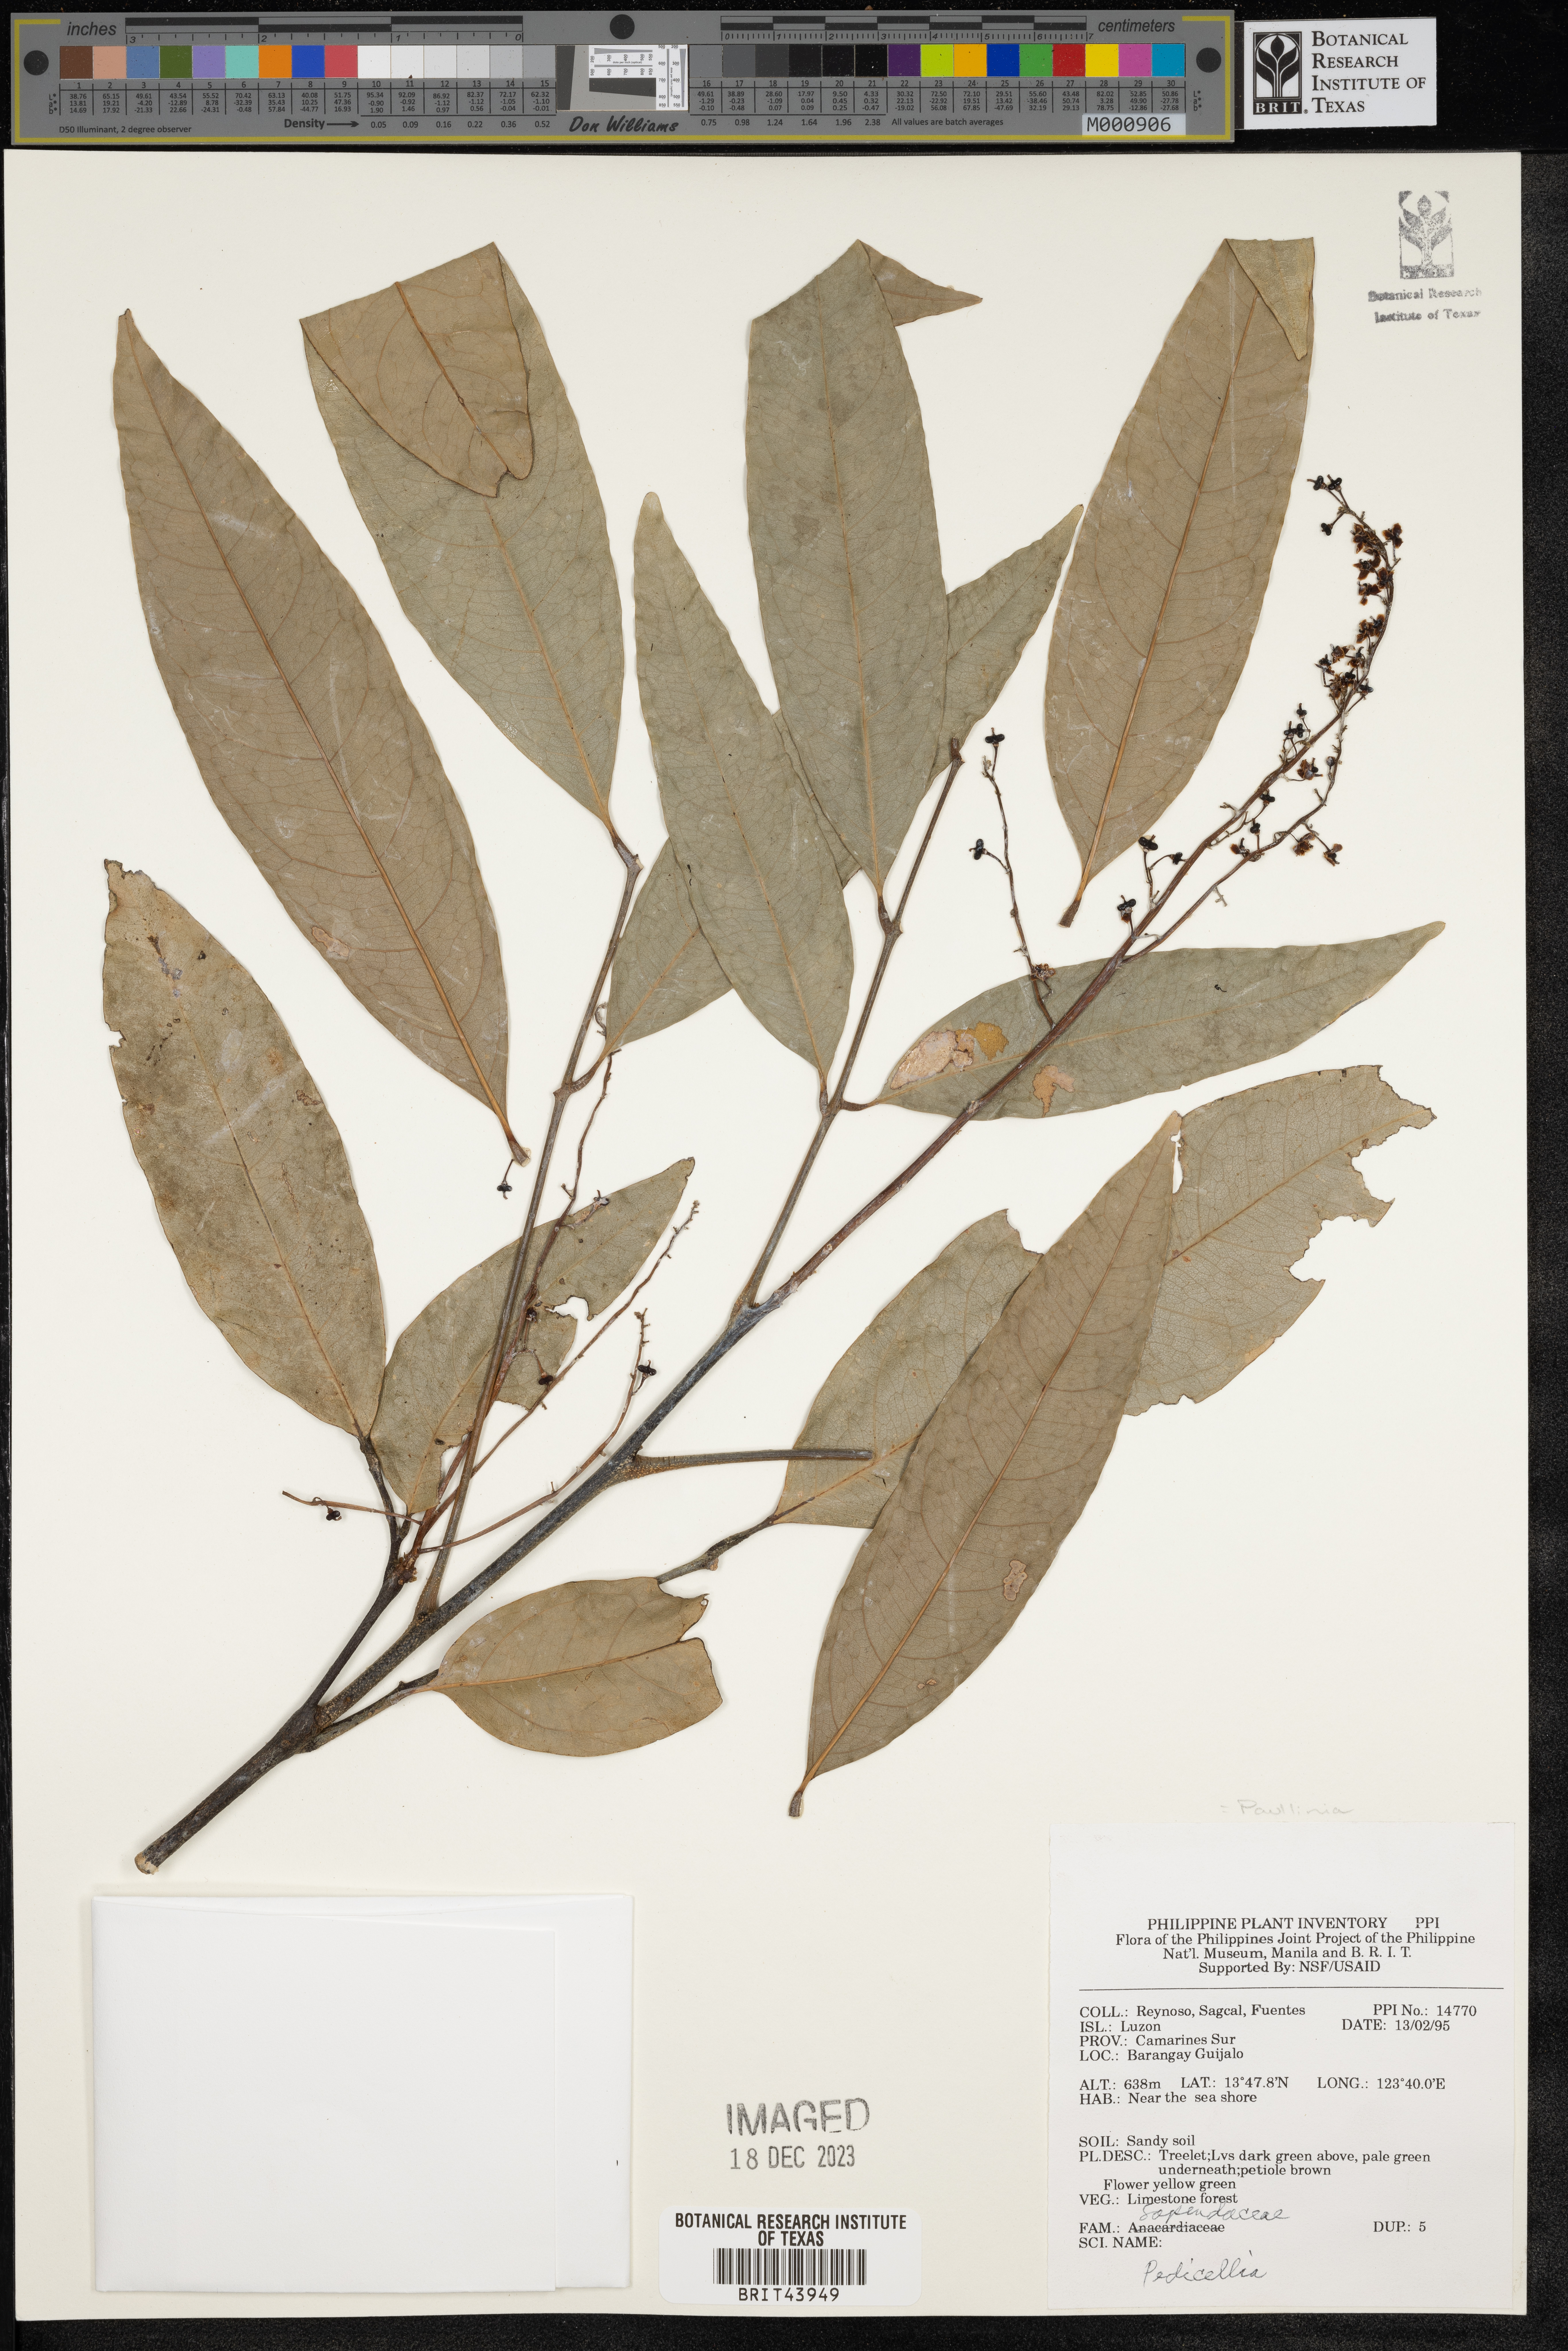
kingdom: Plantae
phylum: Tracheophyta
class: Magnoliopsida
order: Sapindales
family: Sapindaceae
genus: Paullinia
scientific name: Paullinia
